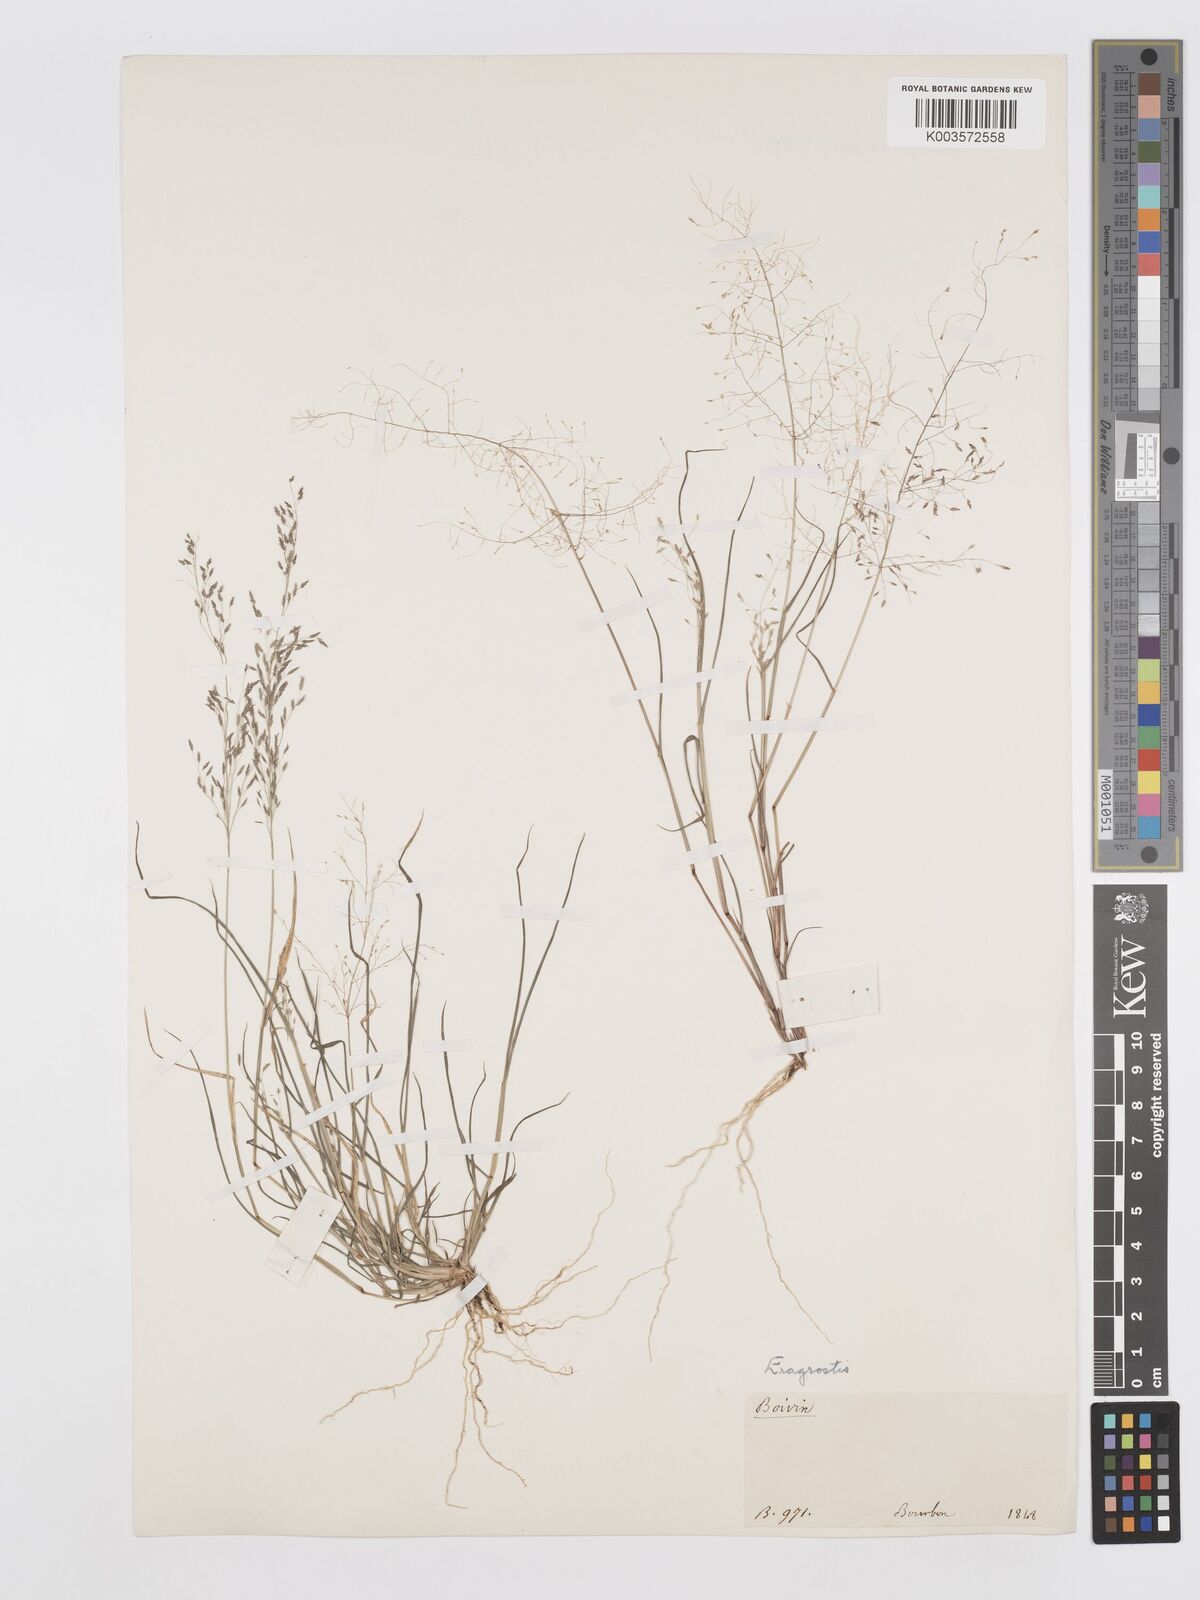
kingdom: Plantae
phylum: Tracheophyta
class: Liliopsida
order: Poales
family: Poaceae
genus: Eragrostis
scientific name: Eragrostis pilosa
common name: Indian lovegrass
